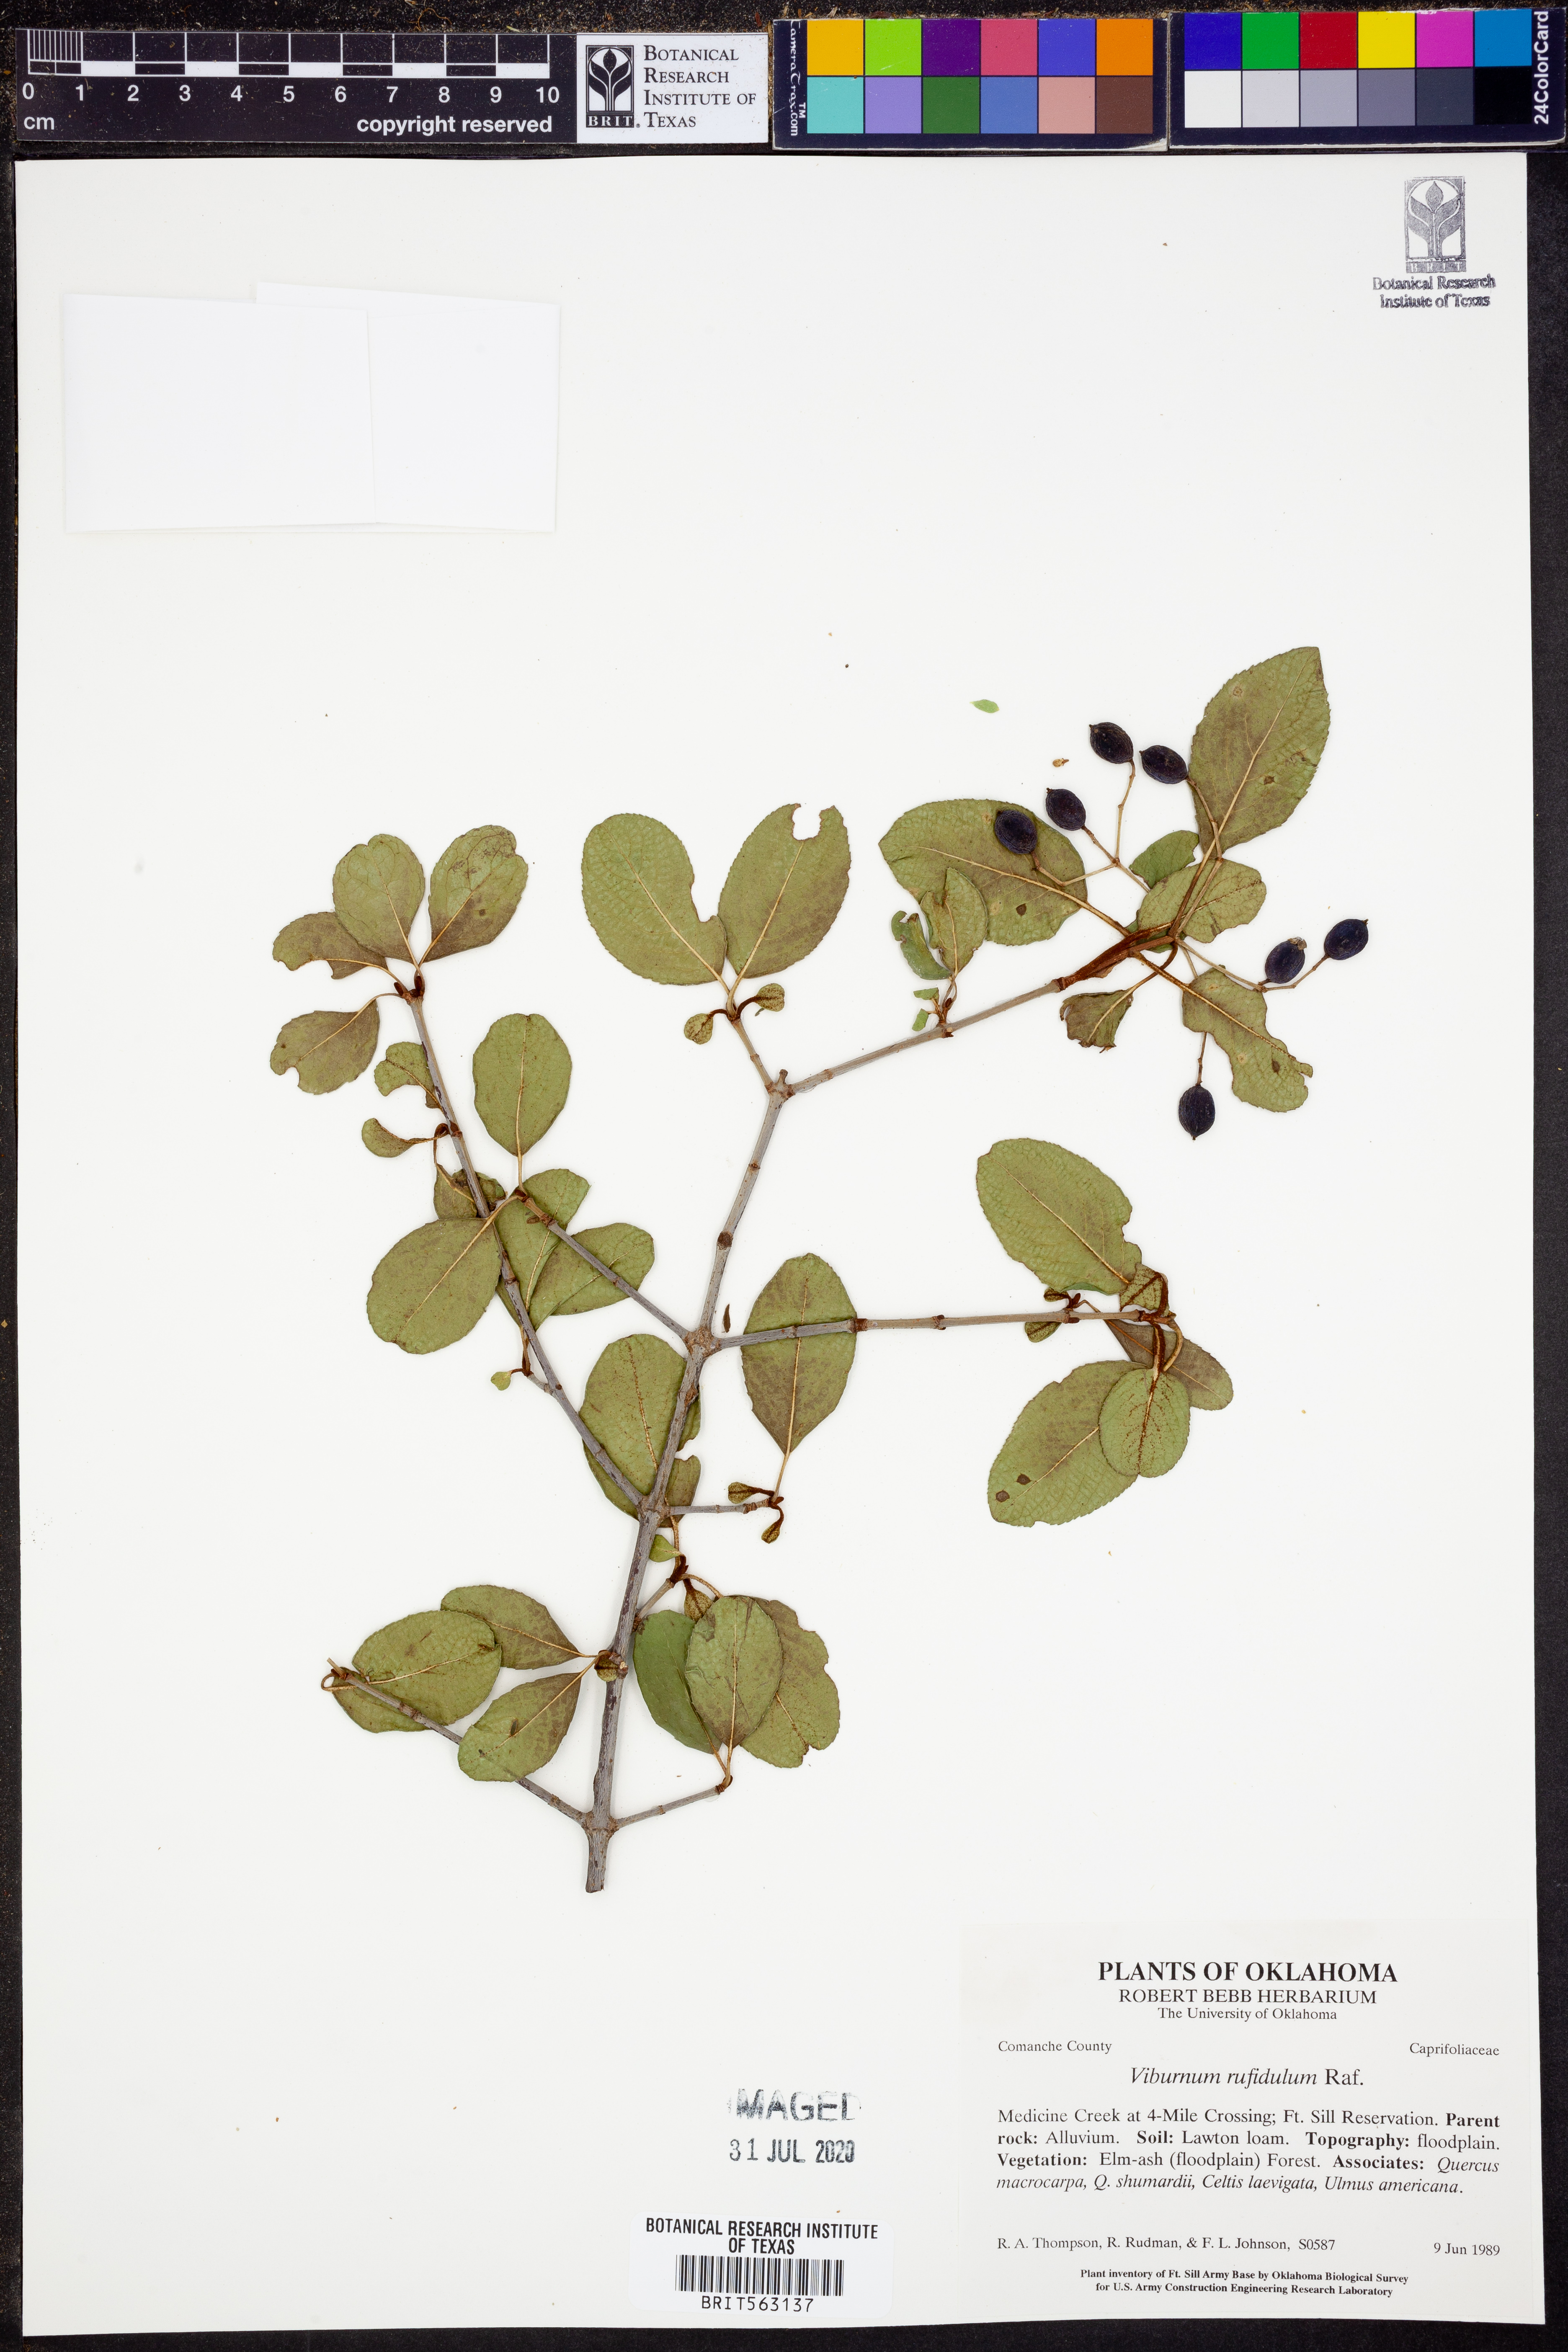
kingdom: Plantae
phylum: Tracheophyta
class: Magnoliopsida
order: Dipsacales
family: Viburnaceae
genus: Viburnum
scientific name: Viburnum rufidulum
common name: Blue haw
